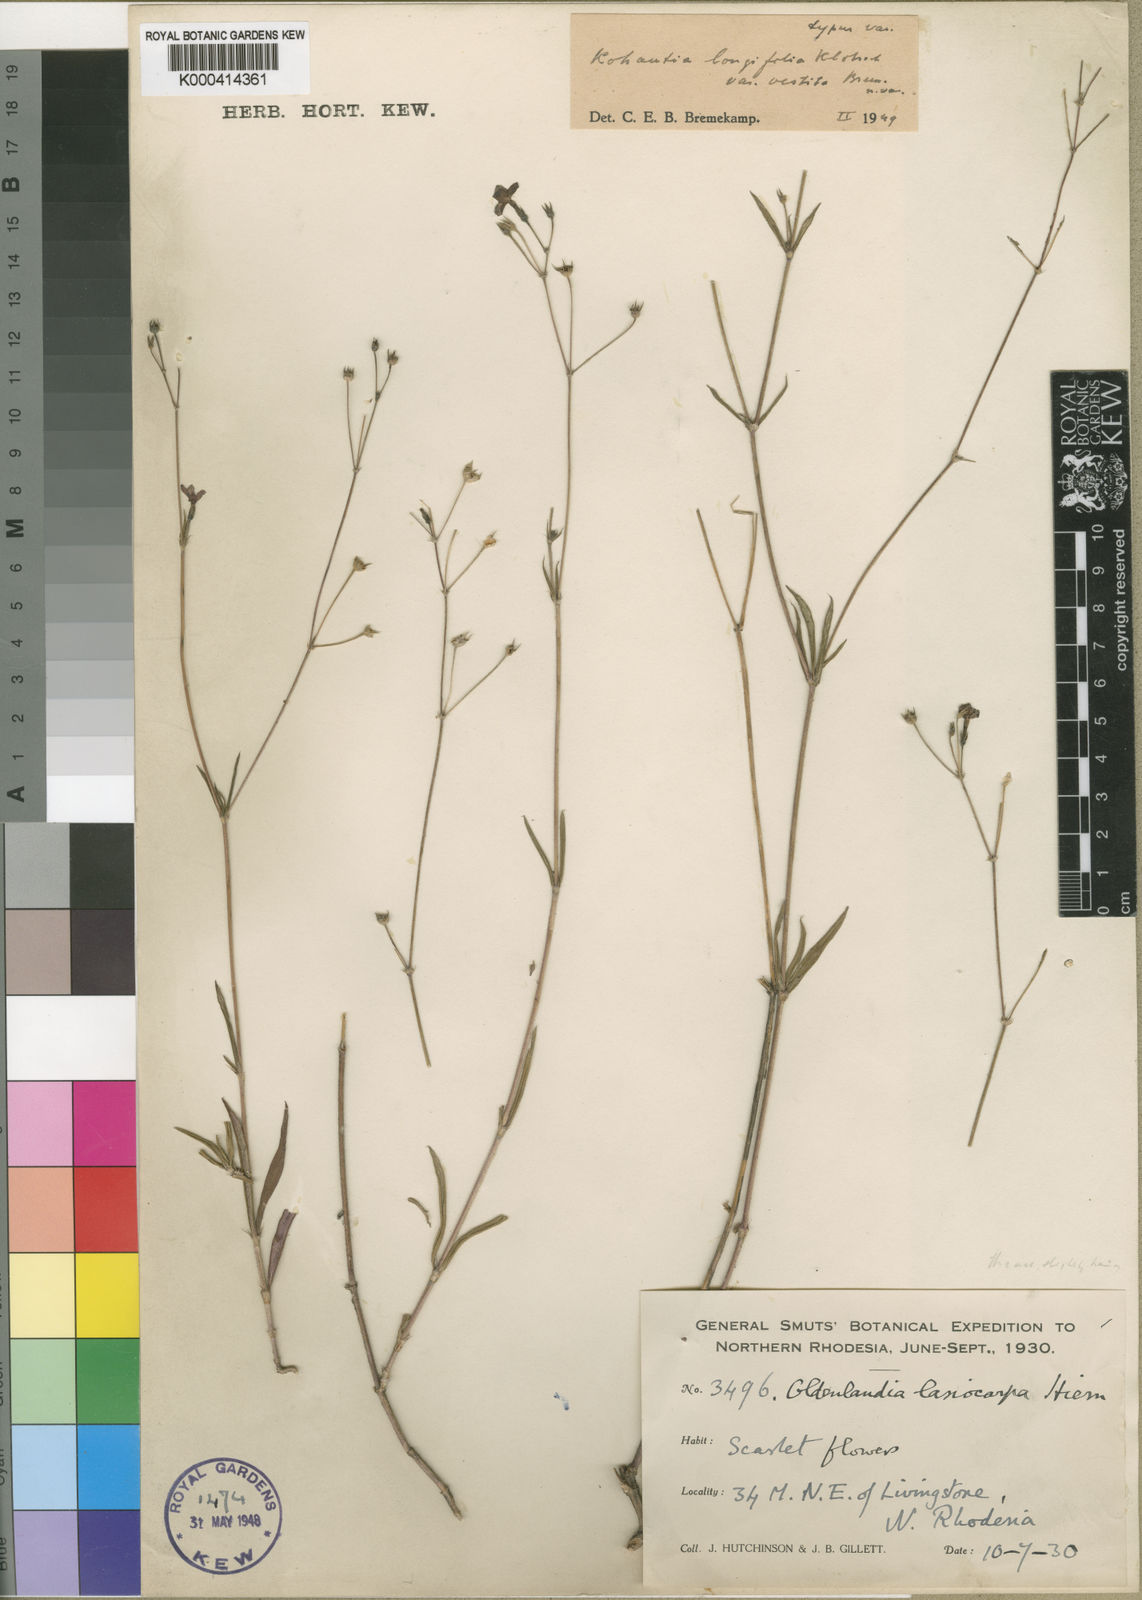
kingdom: Plantae
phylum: Tracheophyta
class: Magnoliopsida
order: Gentianales
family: Rubiaceae
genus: Cordylostigma
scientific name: Cordylostigma longifolium
